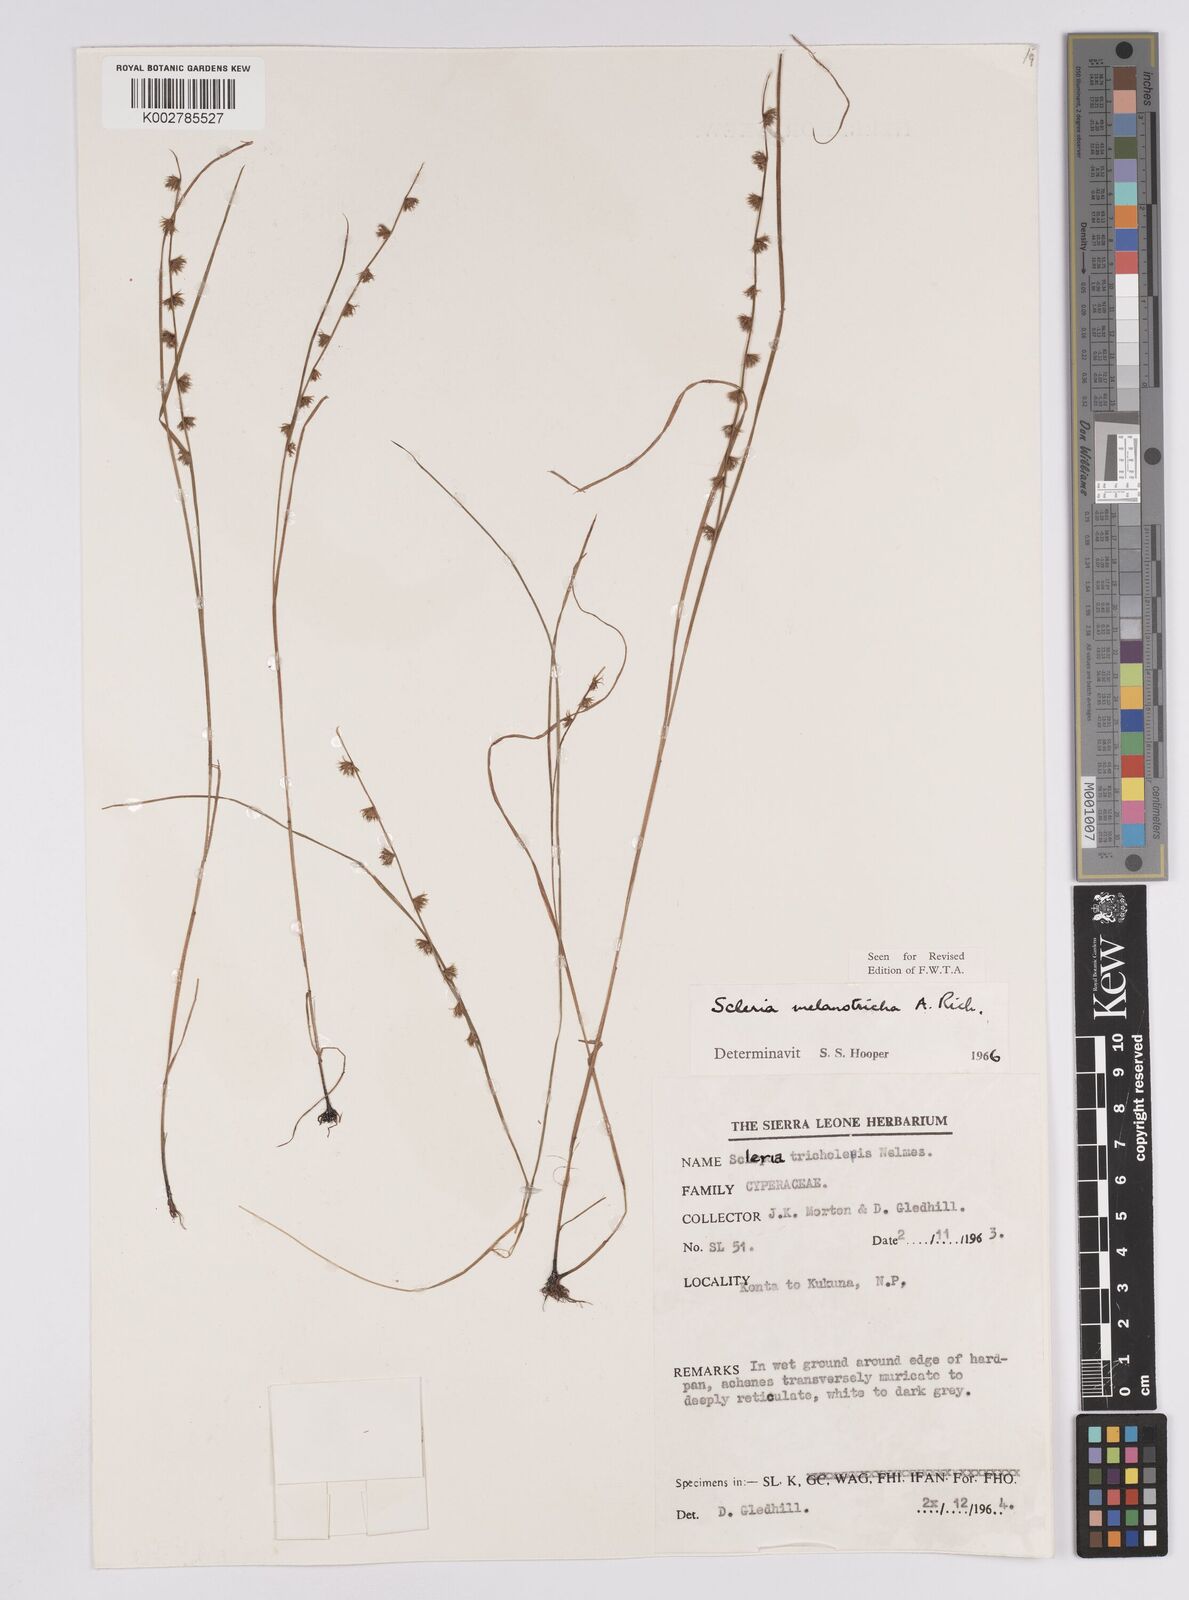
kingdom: Plantae
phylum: Tracheophyta
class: Liliopsida
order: Poales
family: Cyperaceae
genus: Scleria
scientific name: Scleria melanotricha
